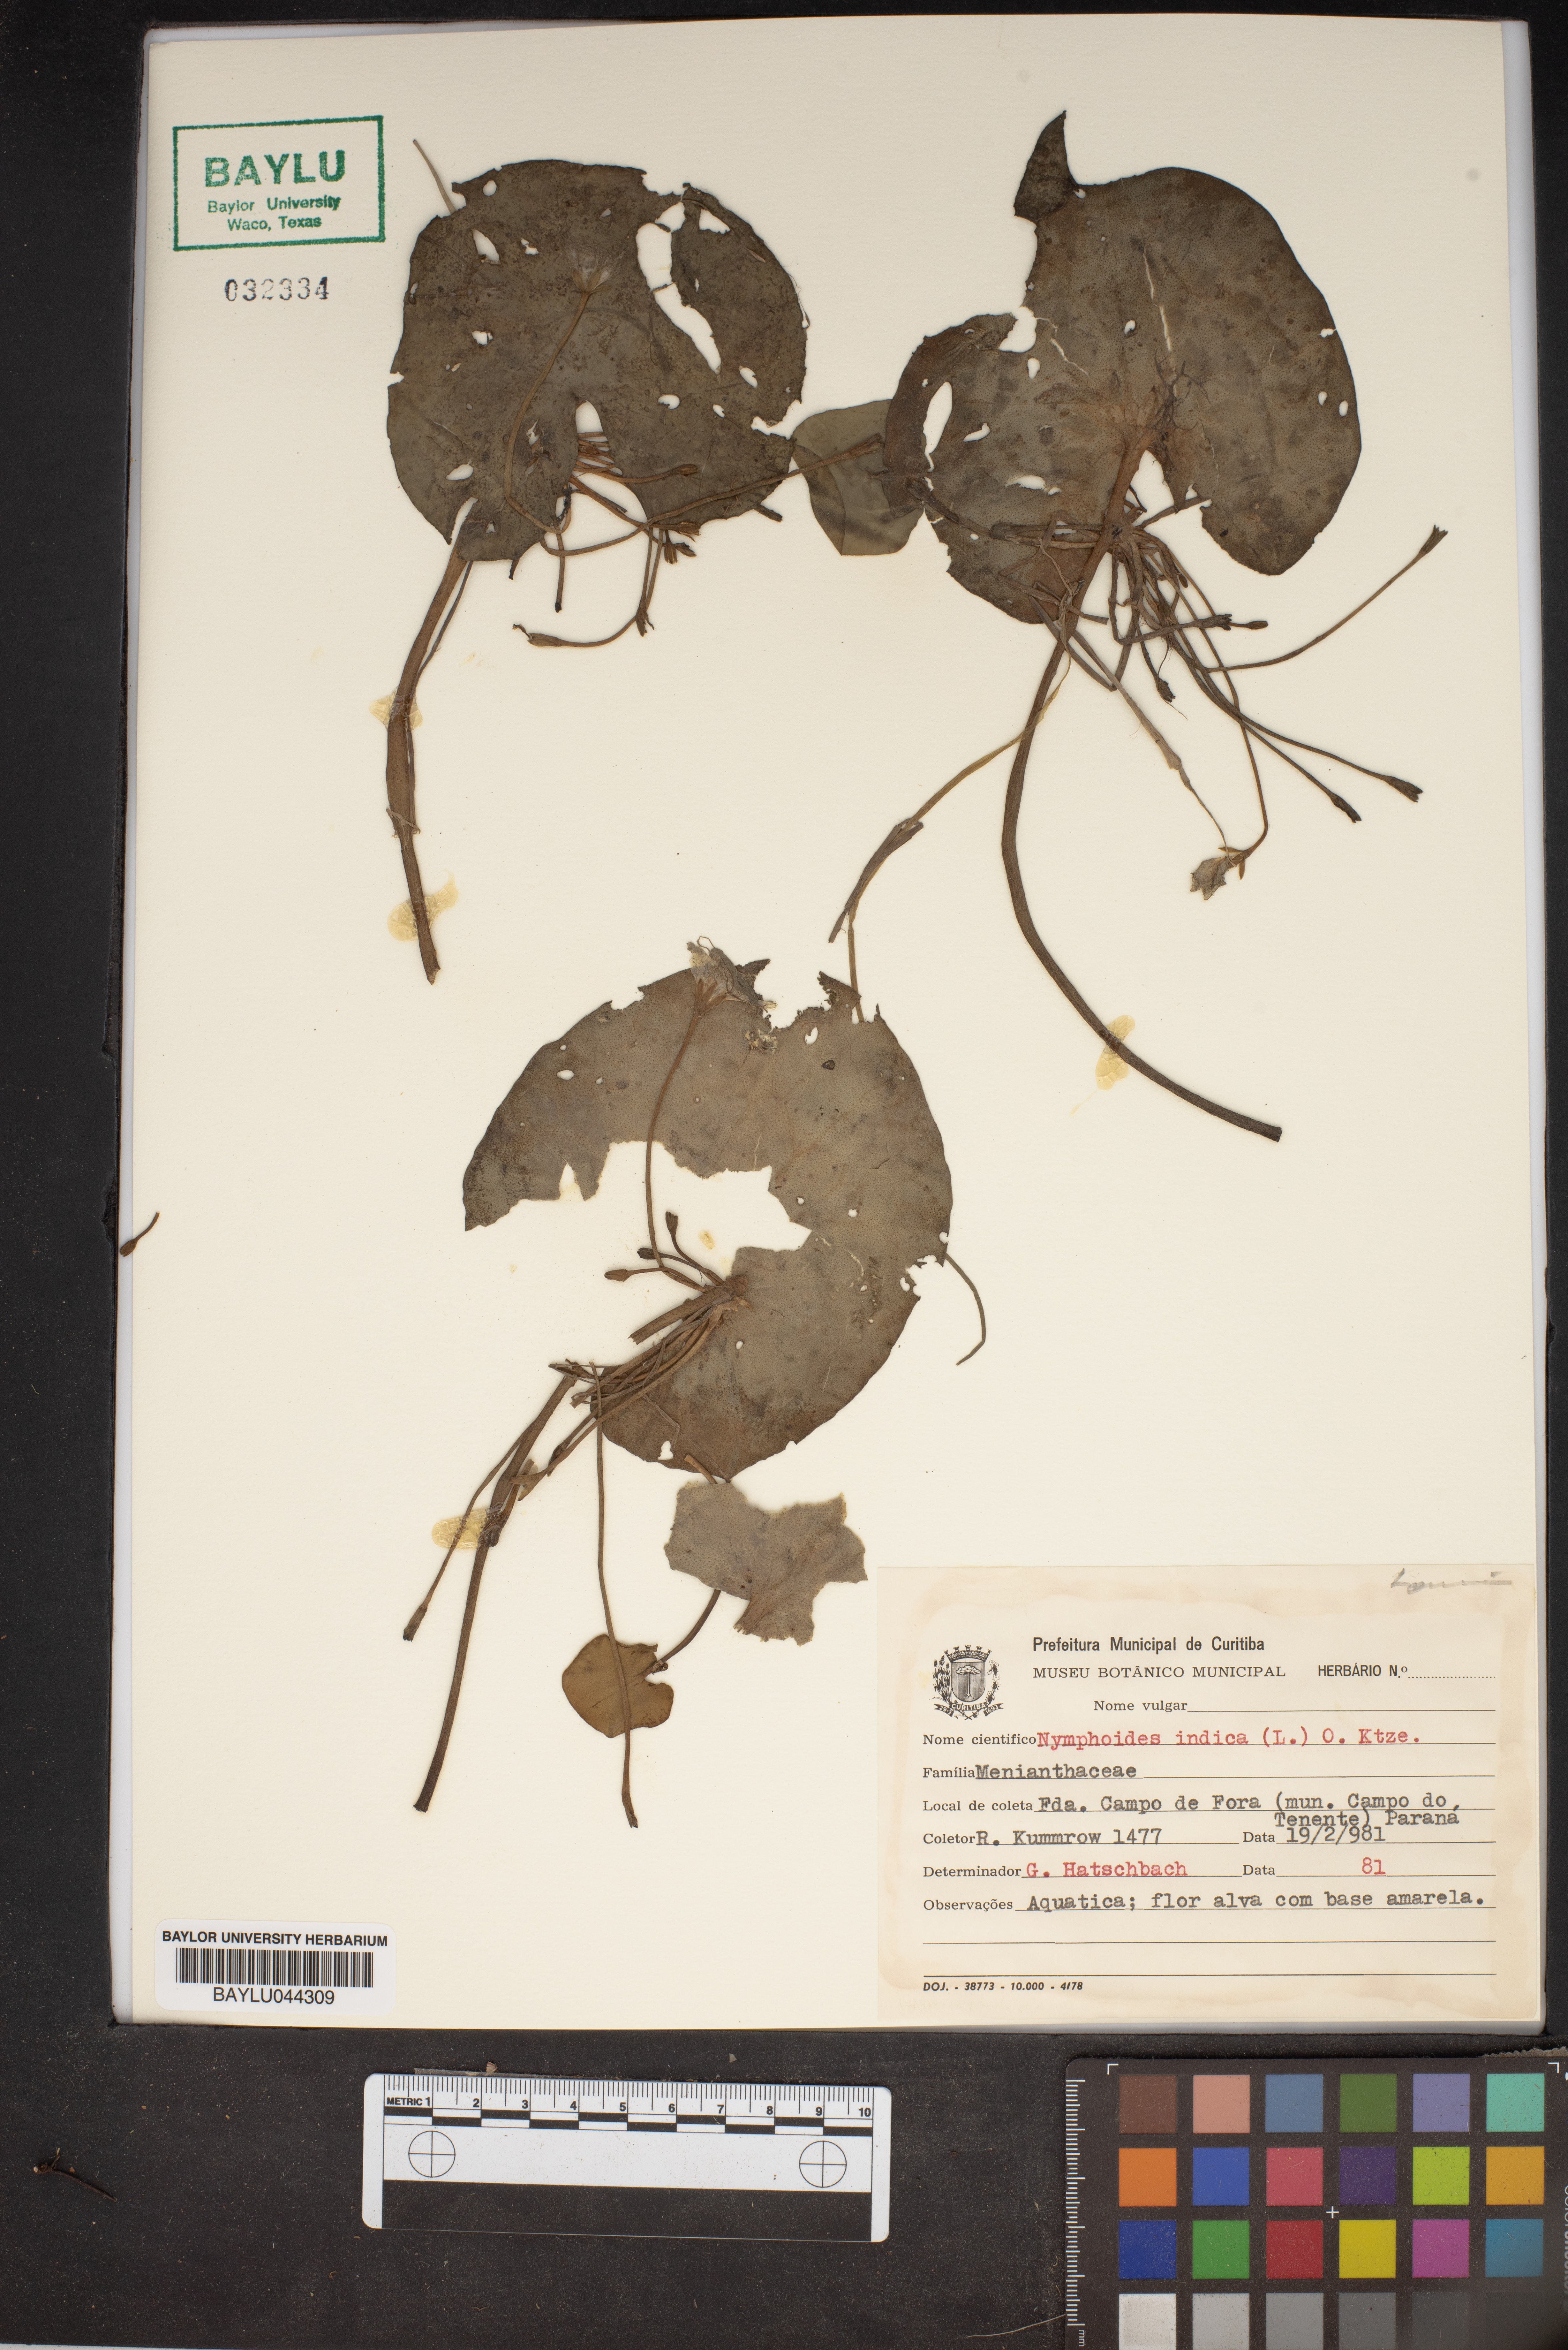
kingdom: Plantae
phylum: Tracheophyta
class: Magnoliopsida
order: Asterales
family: Menyanthaceae
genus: Nymphoides
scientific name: Nymphoides indica
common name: Water-snowflake
